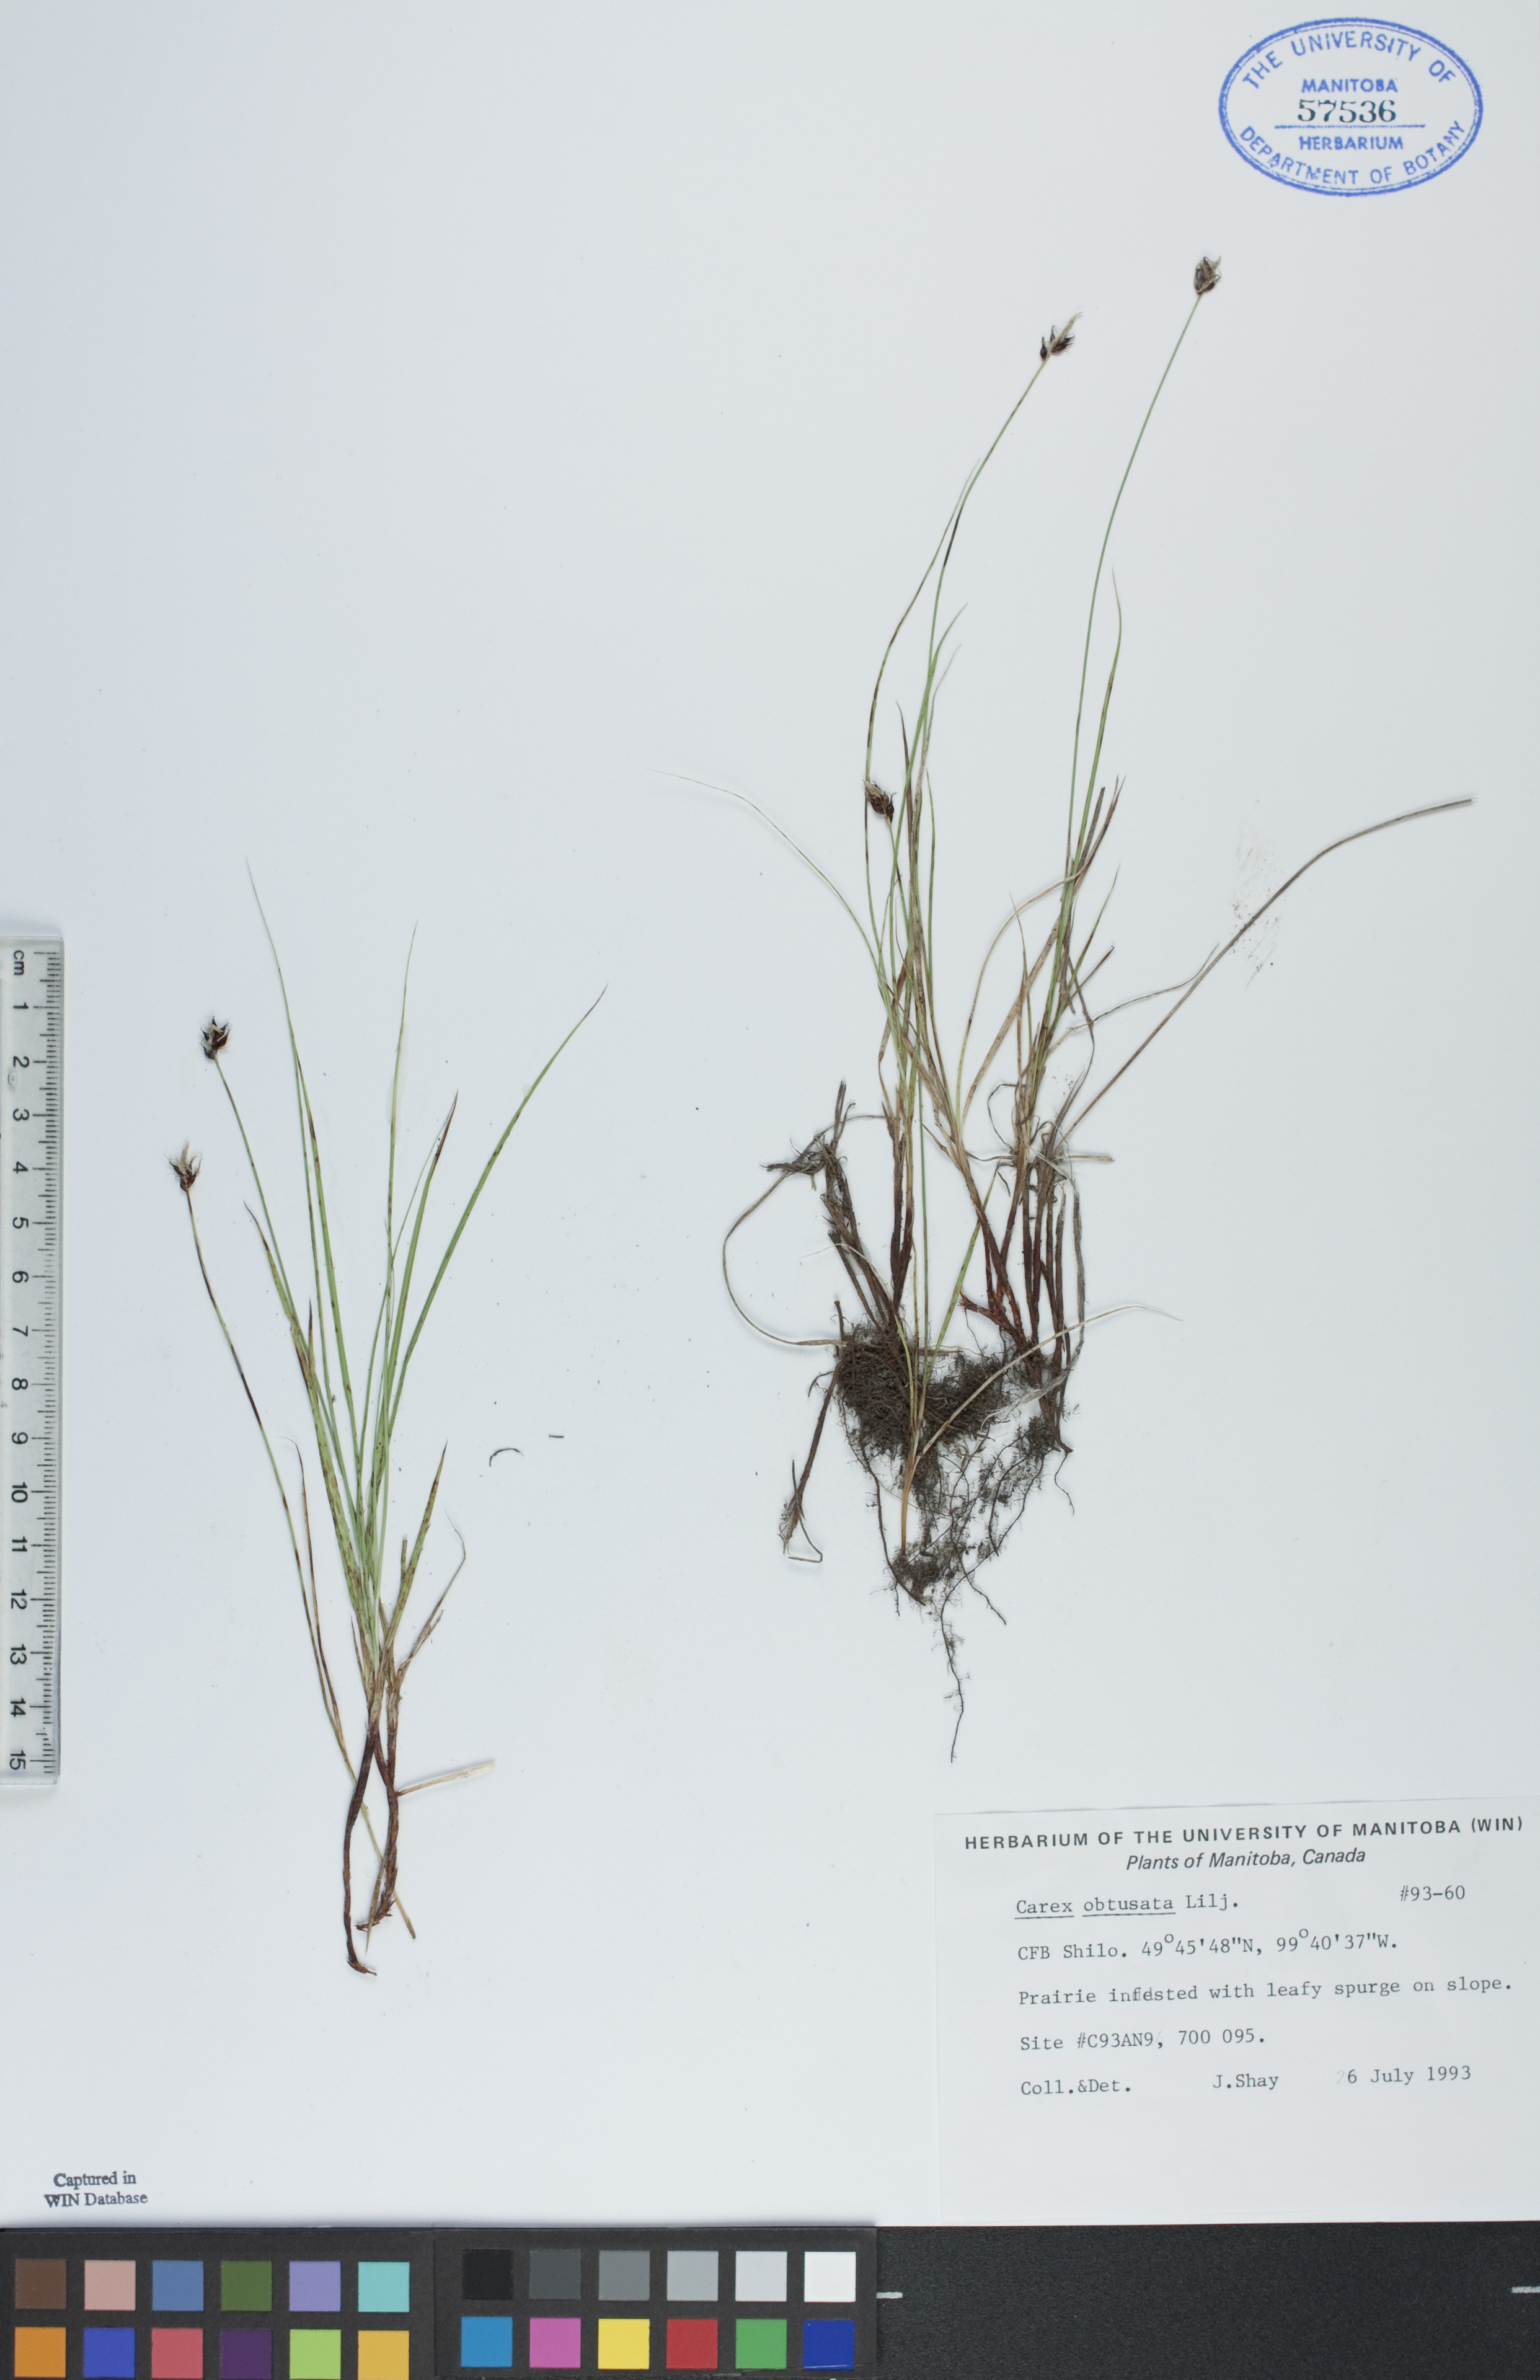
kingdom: Plantae
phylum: Tracheophyta
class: Liliopsida
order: Poales
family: Cyperaceae
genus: Carex
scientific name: Carex obtusata
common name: Blunt sedge
